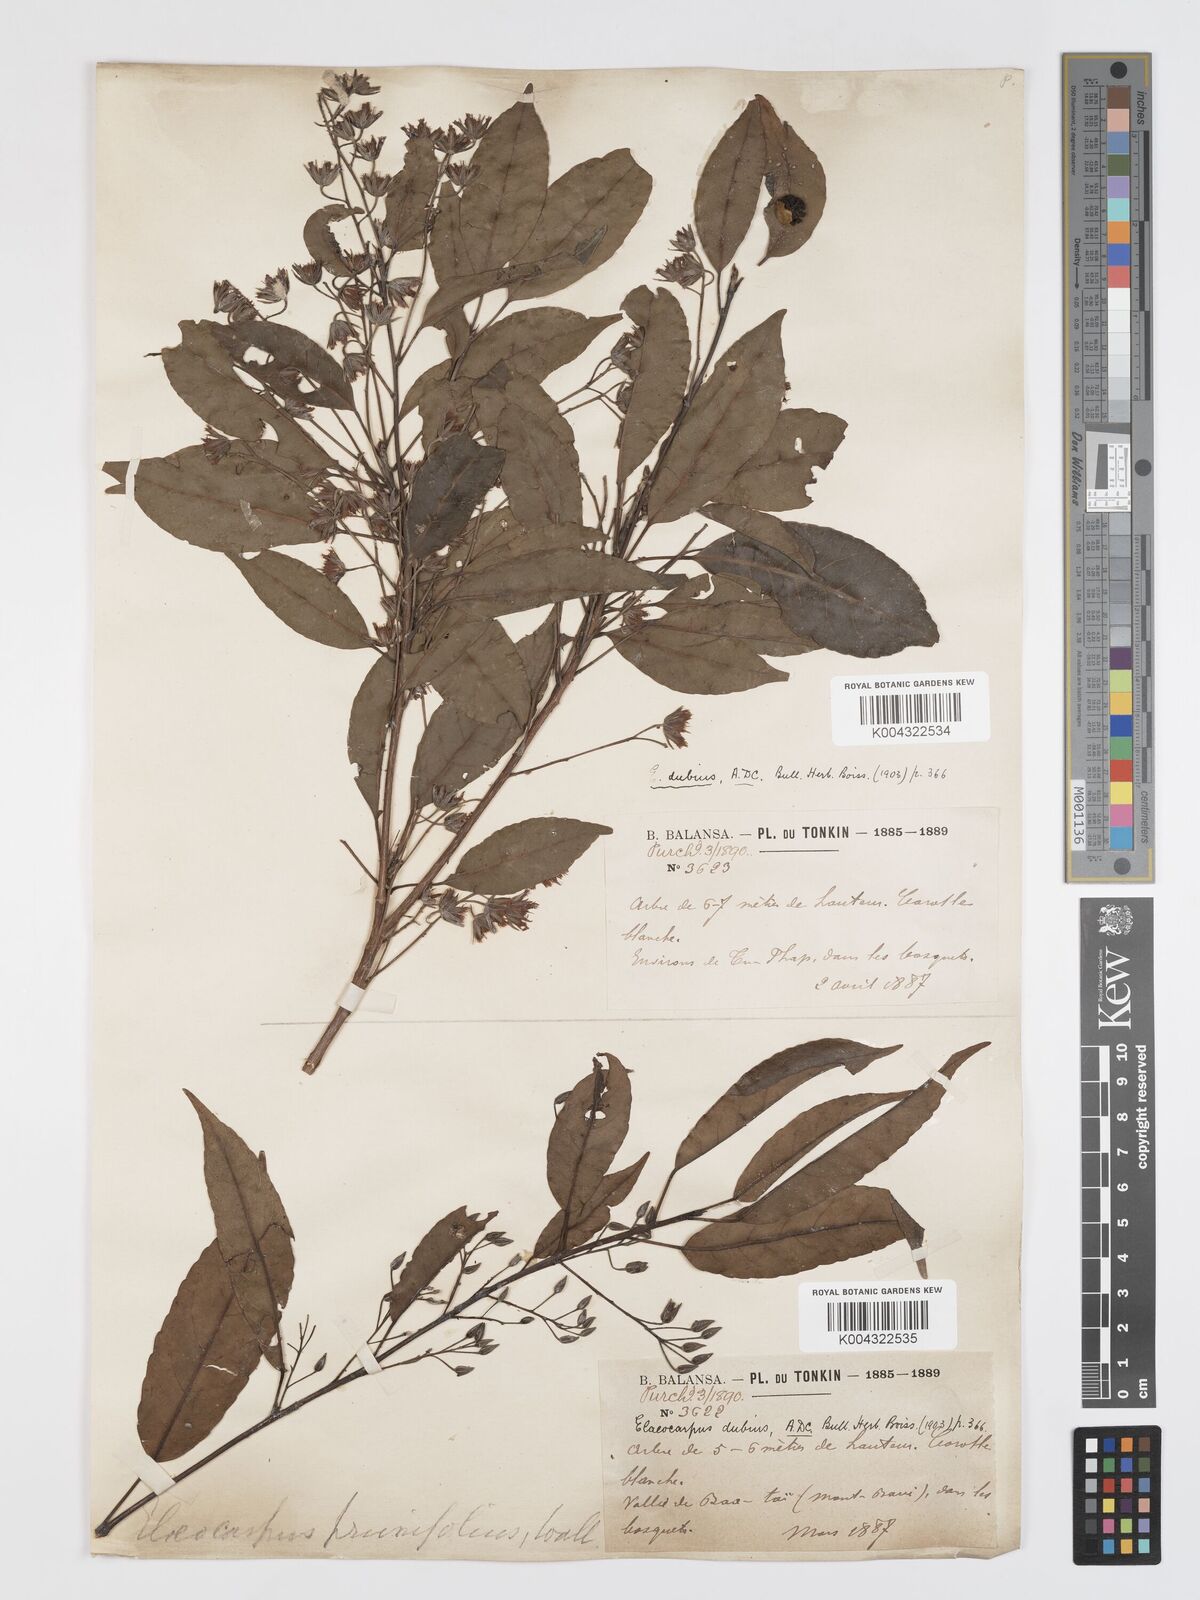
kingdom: Plantae
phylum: Tracheophyta
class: Magnoliopsida
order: Oxalidales
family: Elaeocarpaceae
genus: Elaeocarpus
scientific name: Elaeocarpus dubius
